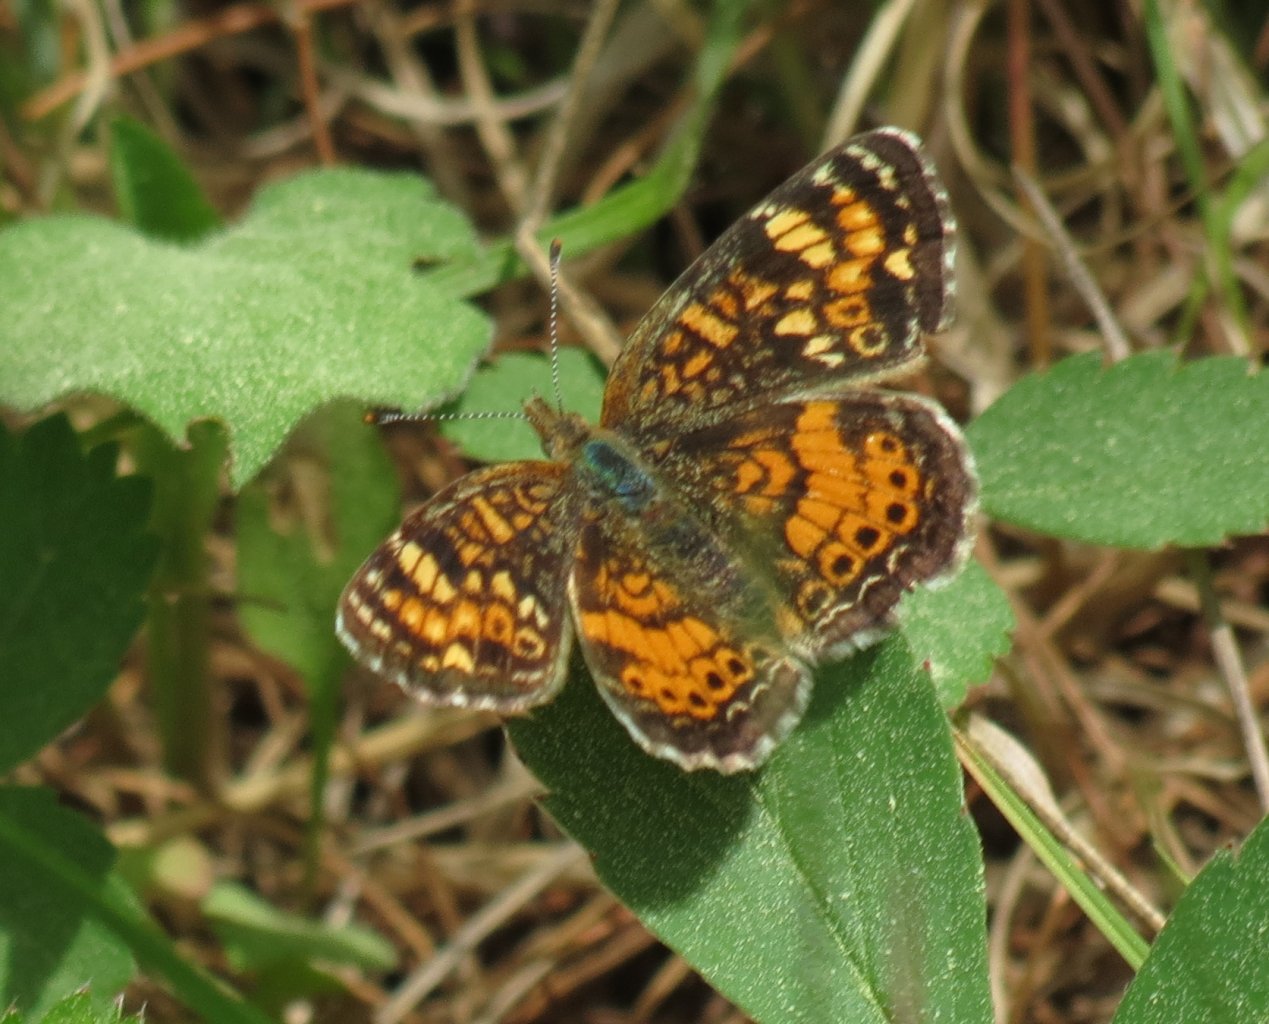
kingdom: Animalia
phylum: Arthropoda
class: Insecta
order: Lepidoptera
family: Nymphalidae
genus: Phyciodes
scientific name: Phyciodes tharos
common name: Pearl Crescent
